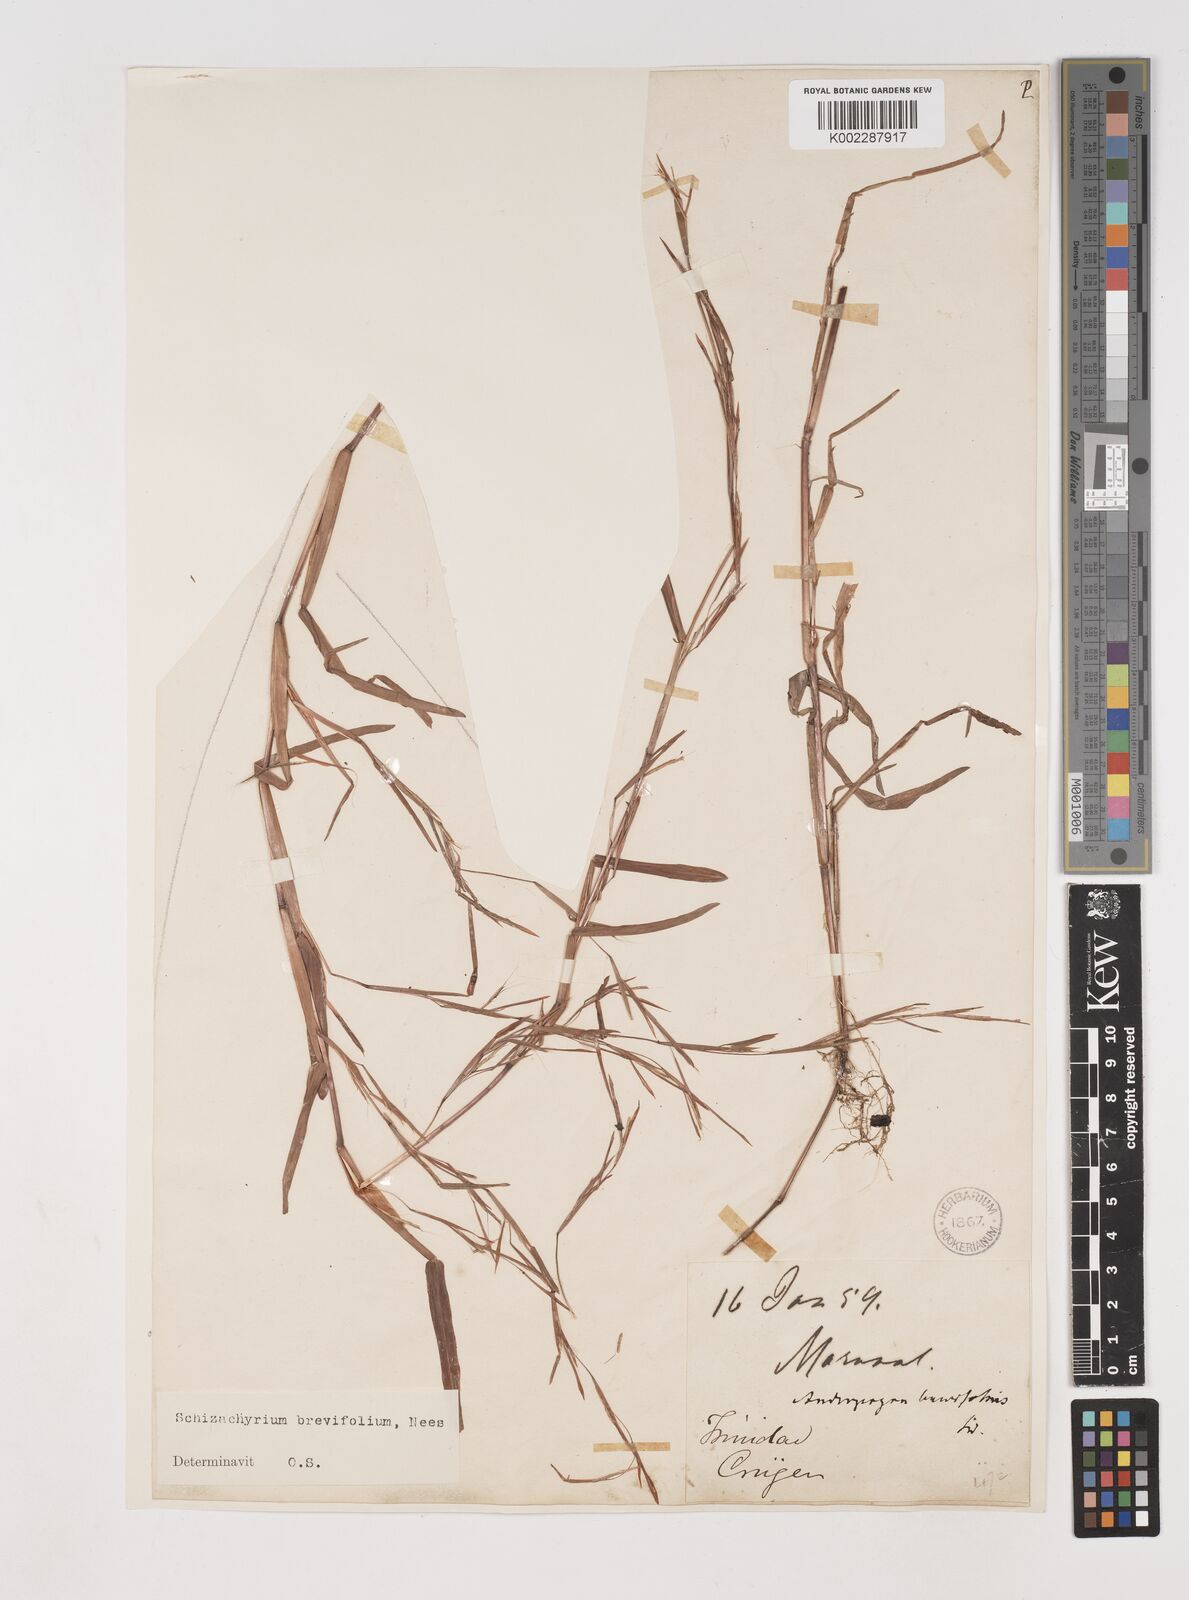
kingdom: Plantae
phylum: Tracheophyta
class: Liliopsida
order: Poales
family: Poaceae
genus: Schizachyrium
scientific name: Schizachyrium brevifolium
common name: Serillo dulce
